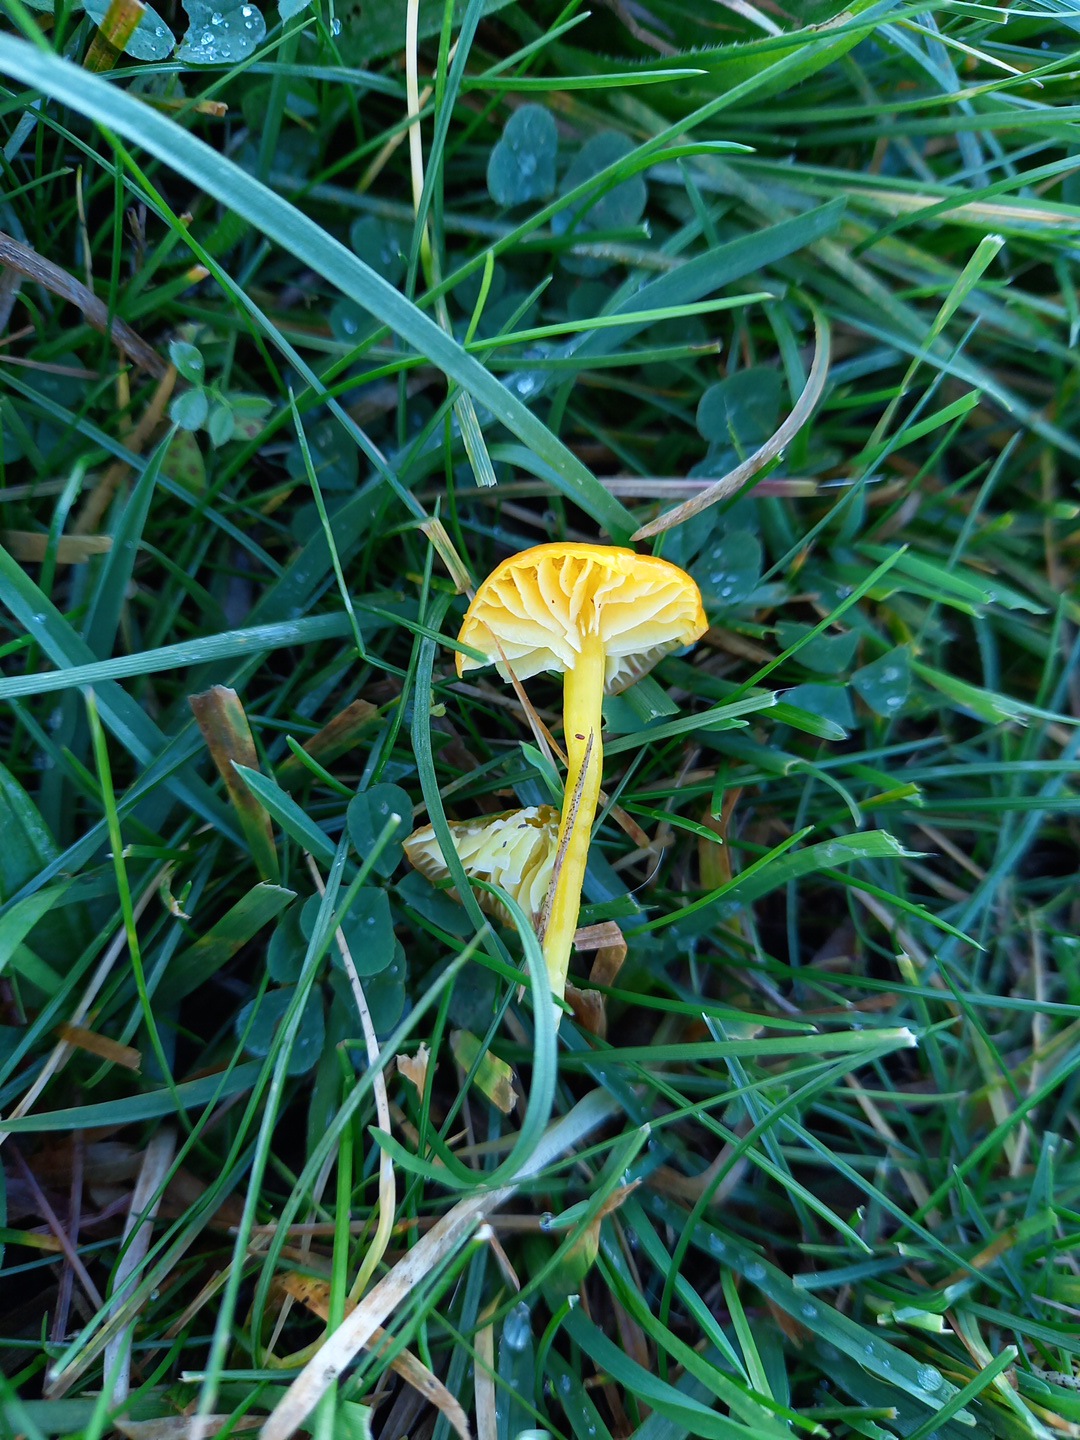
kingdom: Fungi
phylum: Basidiomycota
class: Agaricomycetes
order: Agaricales
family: Hygrophoraceae
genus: Hygrocybe
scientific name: Hygrocybe ceracea
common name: voksgul vokshat
